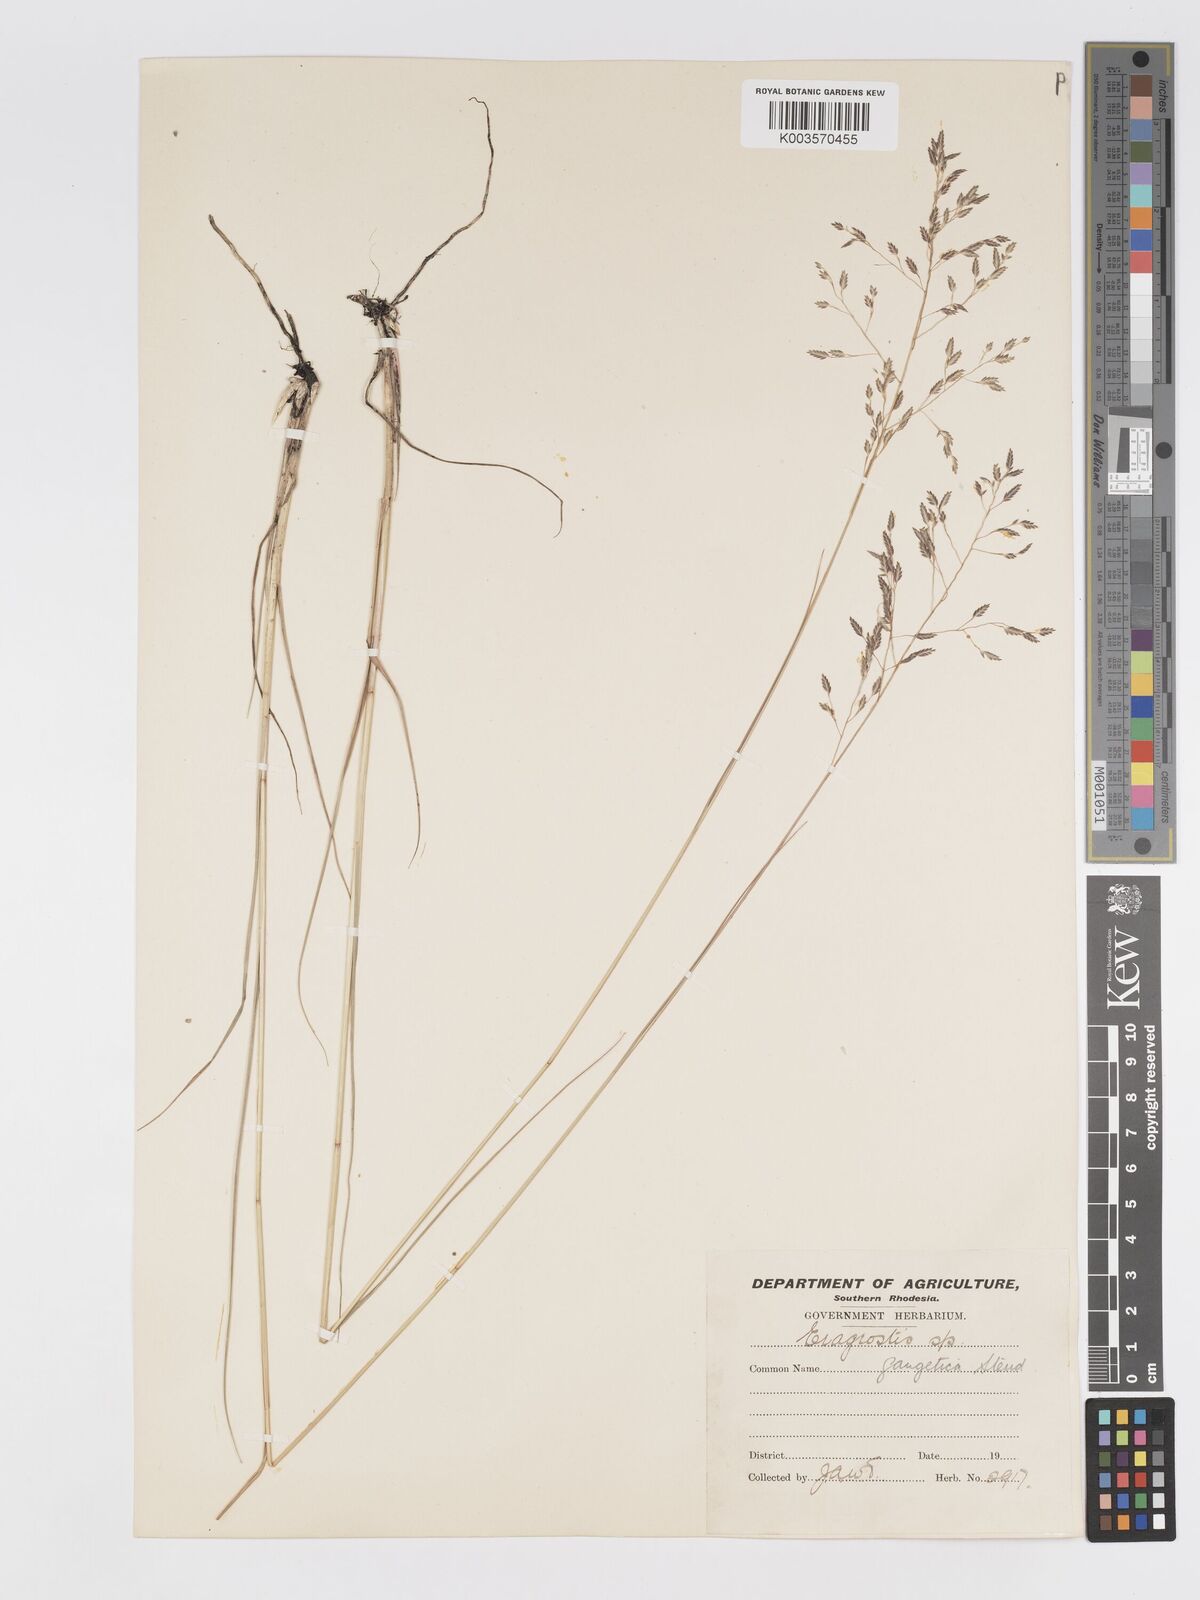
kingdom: Plantae
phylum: Tracheophyta
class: Liliopsida
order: Poales
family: Poaceae
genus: Eragrostis
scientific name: Eragrostis inamoena
